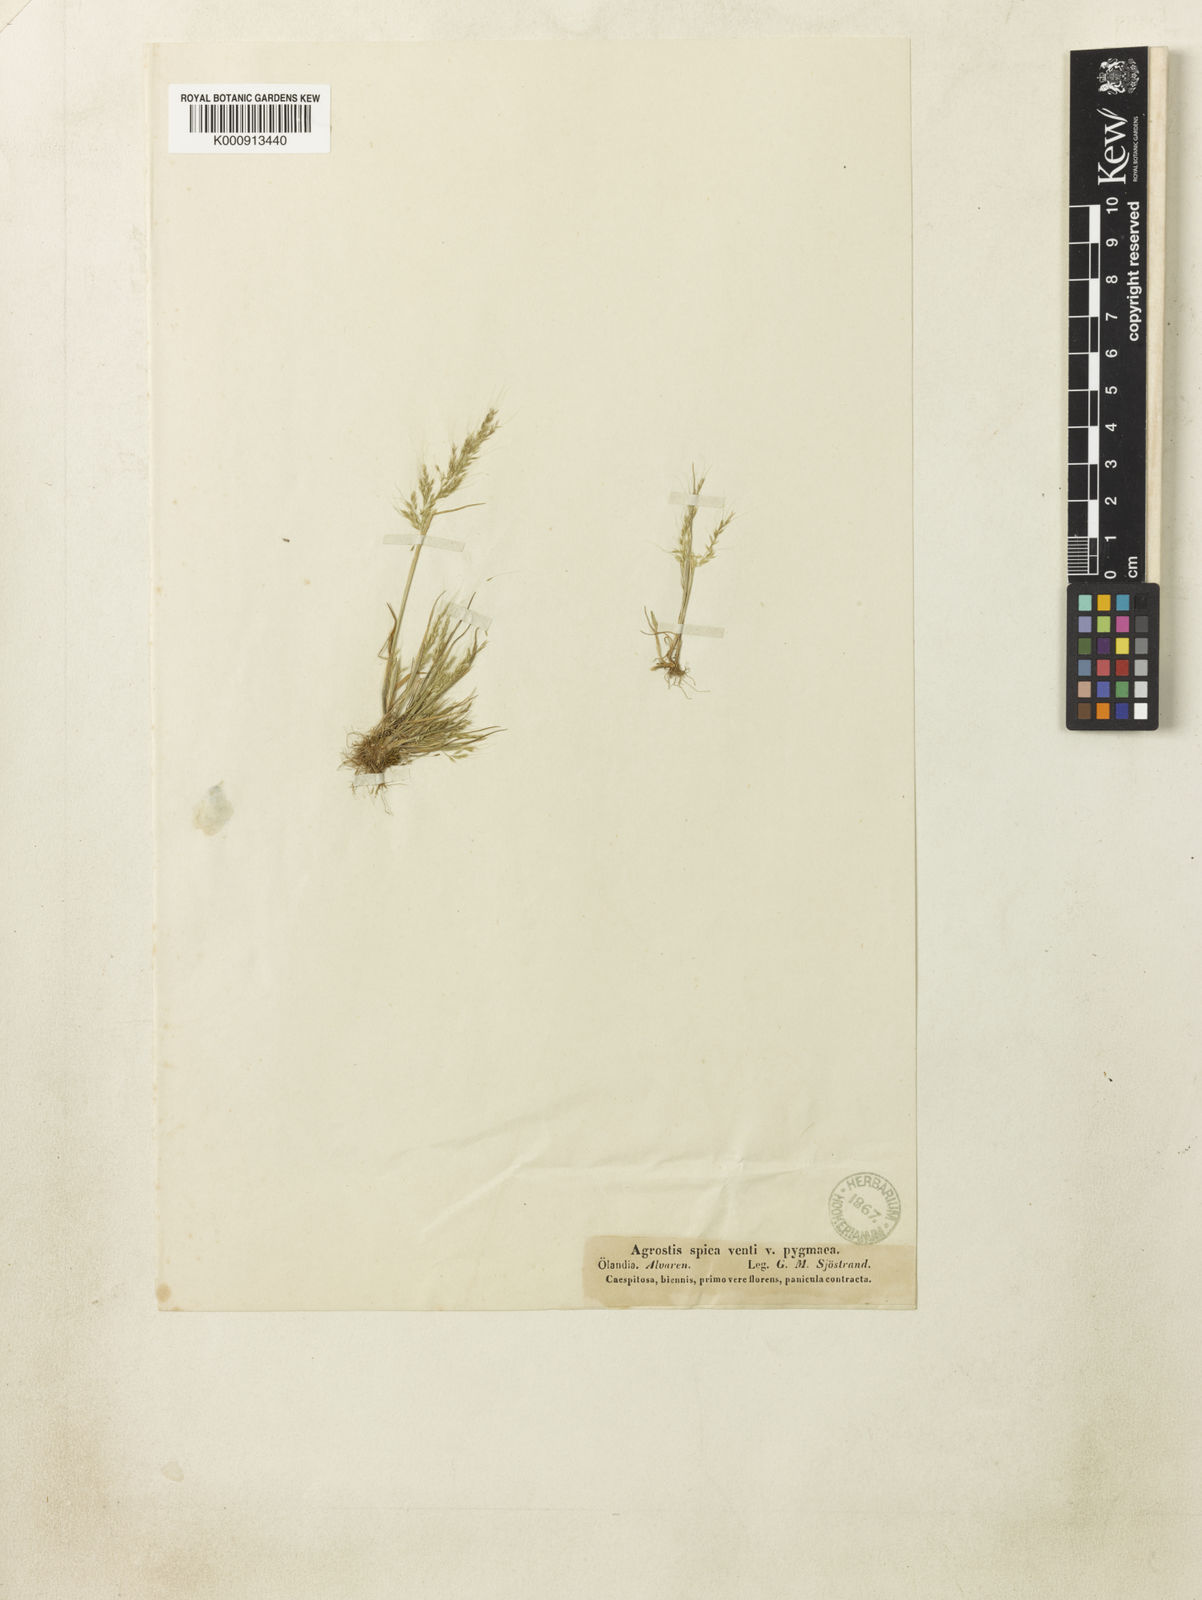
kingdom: Plantae
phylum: Tracheophyta
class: Liliopsida
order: Poales
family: Poaceae
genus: Apera
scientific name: Apera spica-venti
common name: Loose silky-bent
